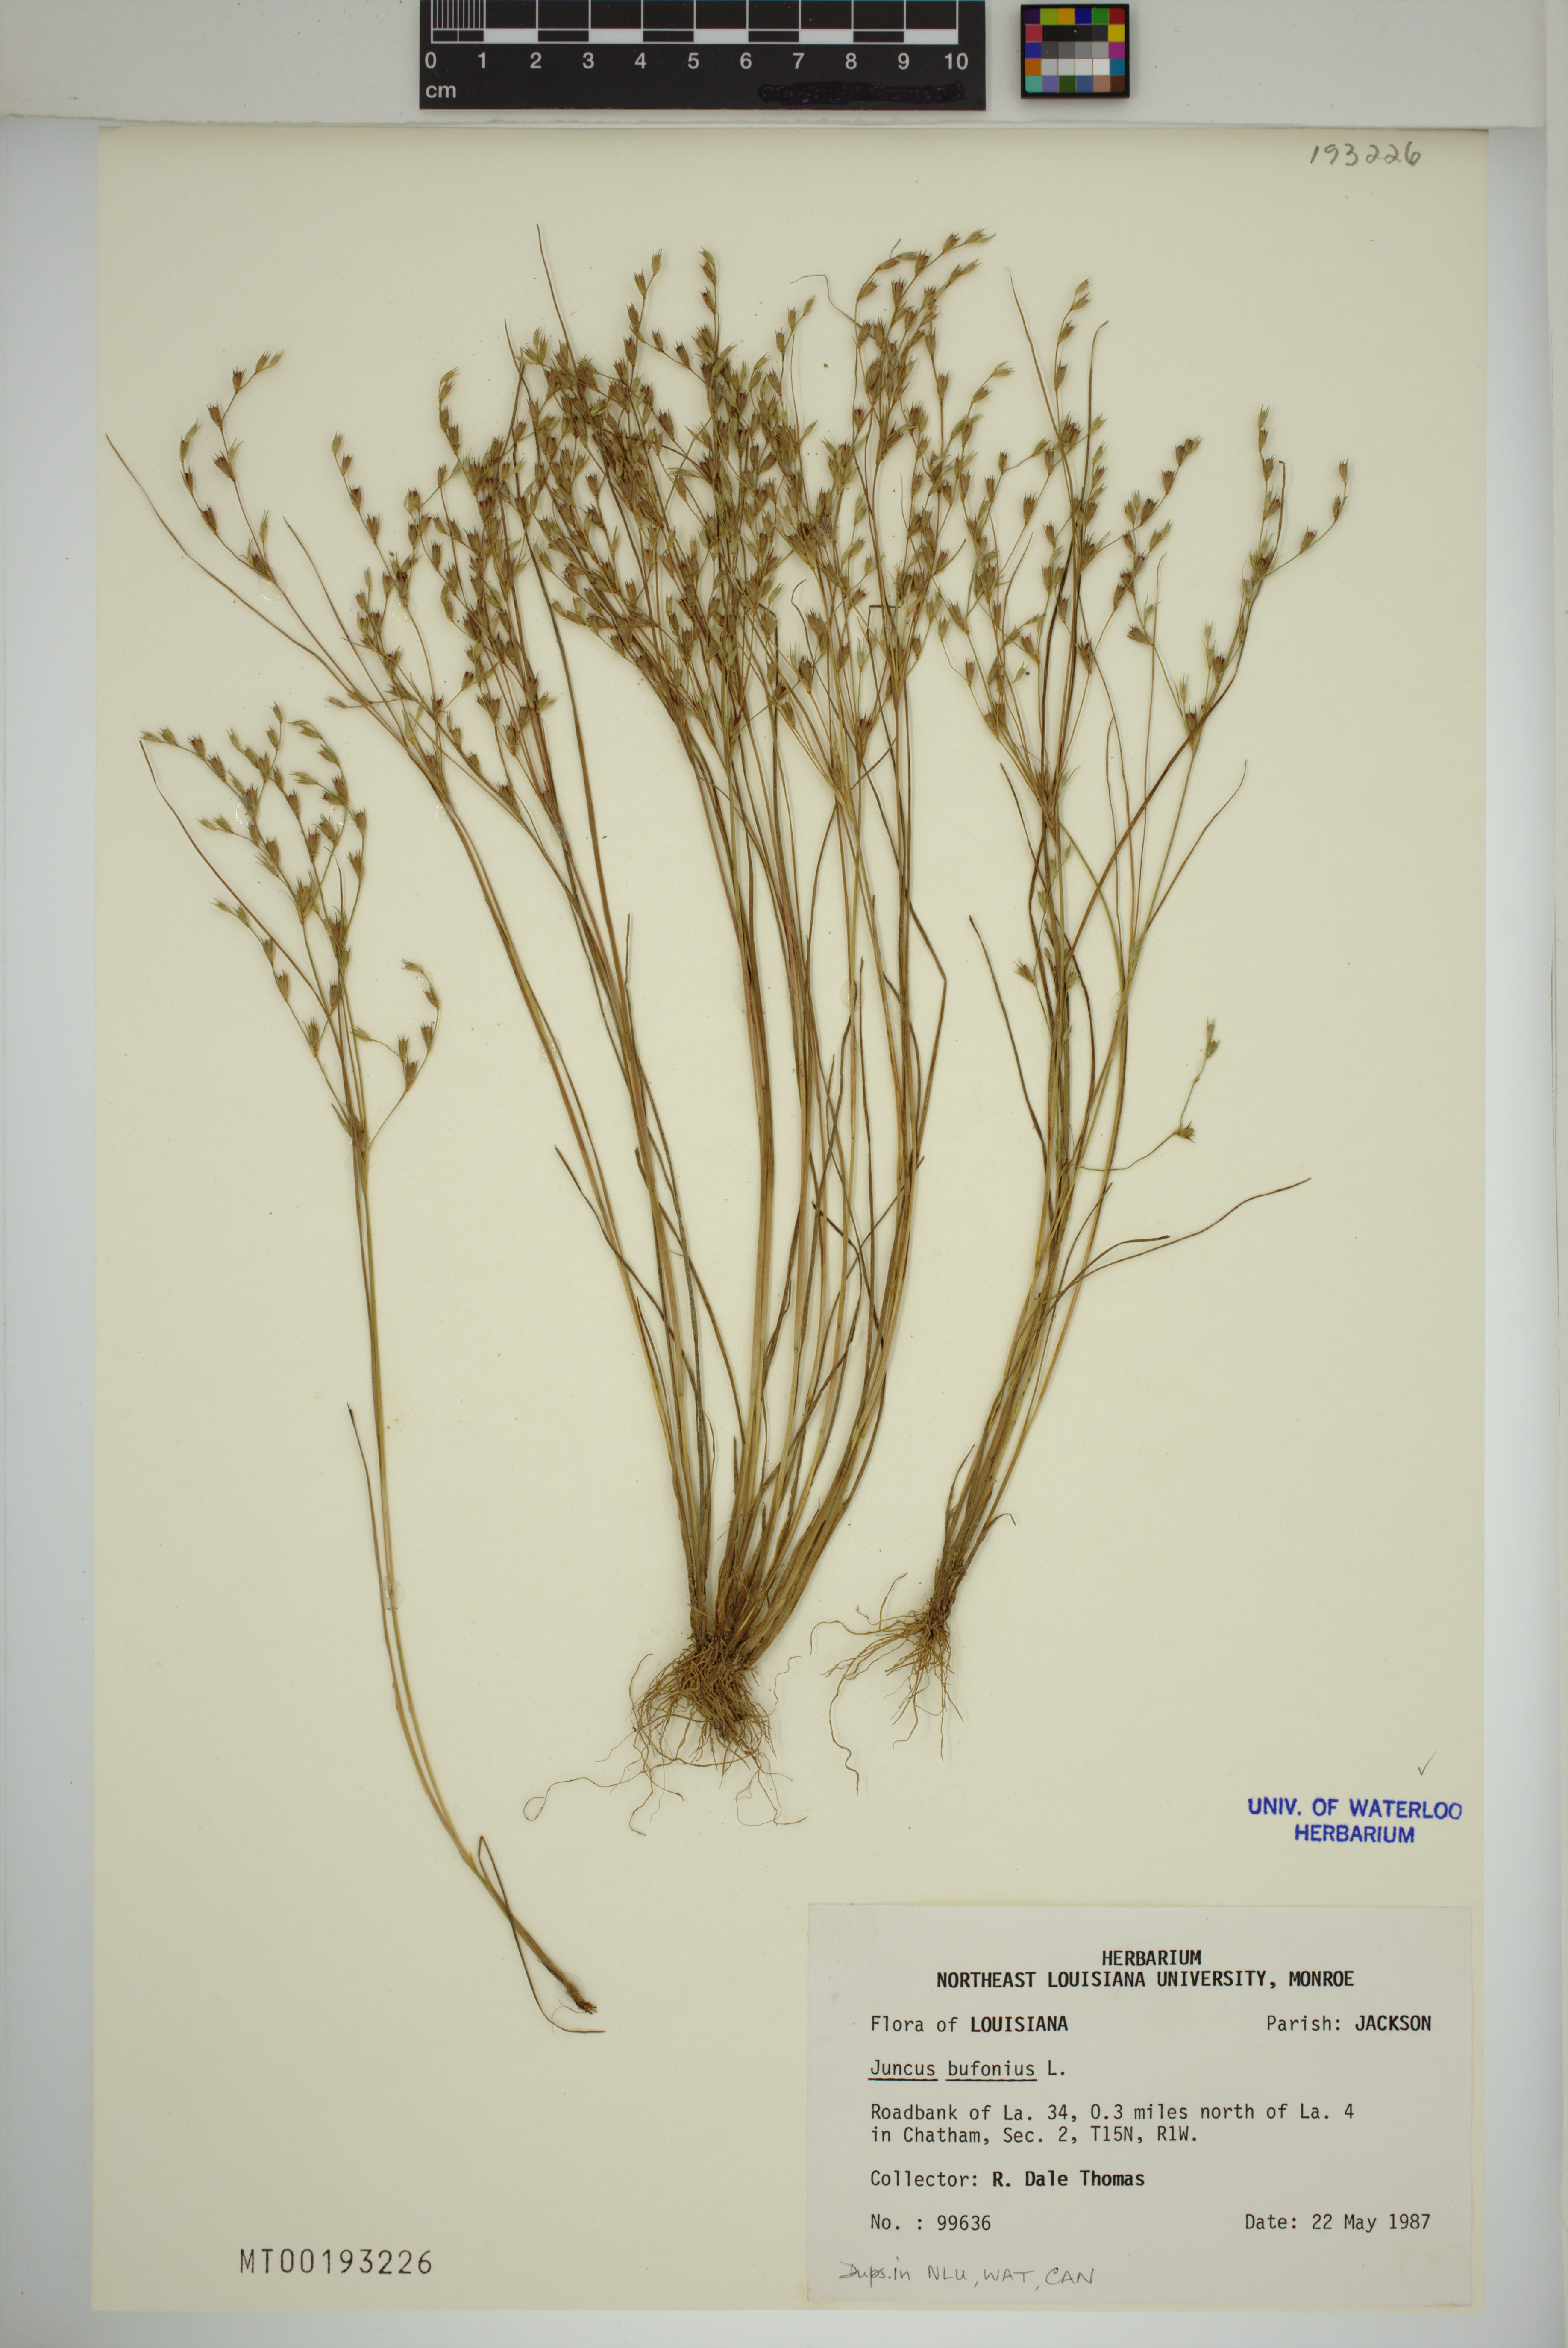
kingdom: Plantae
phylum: Tracheophyta
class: Liliopsida
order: Poales
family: Juncaceae
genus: Juncus
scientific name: Juncus bufonius
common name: Toad rush
